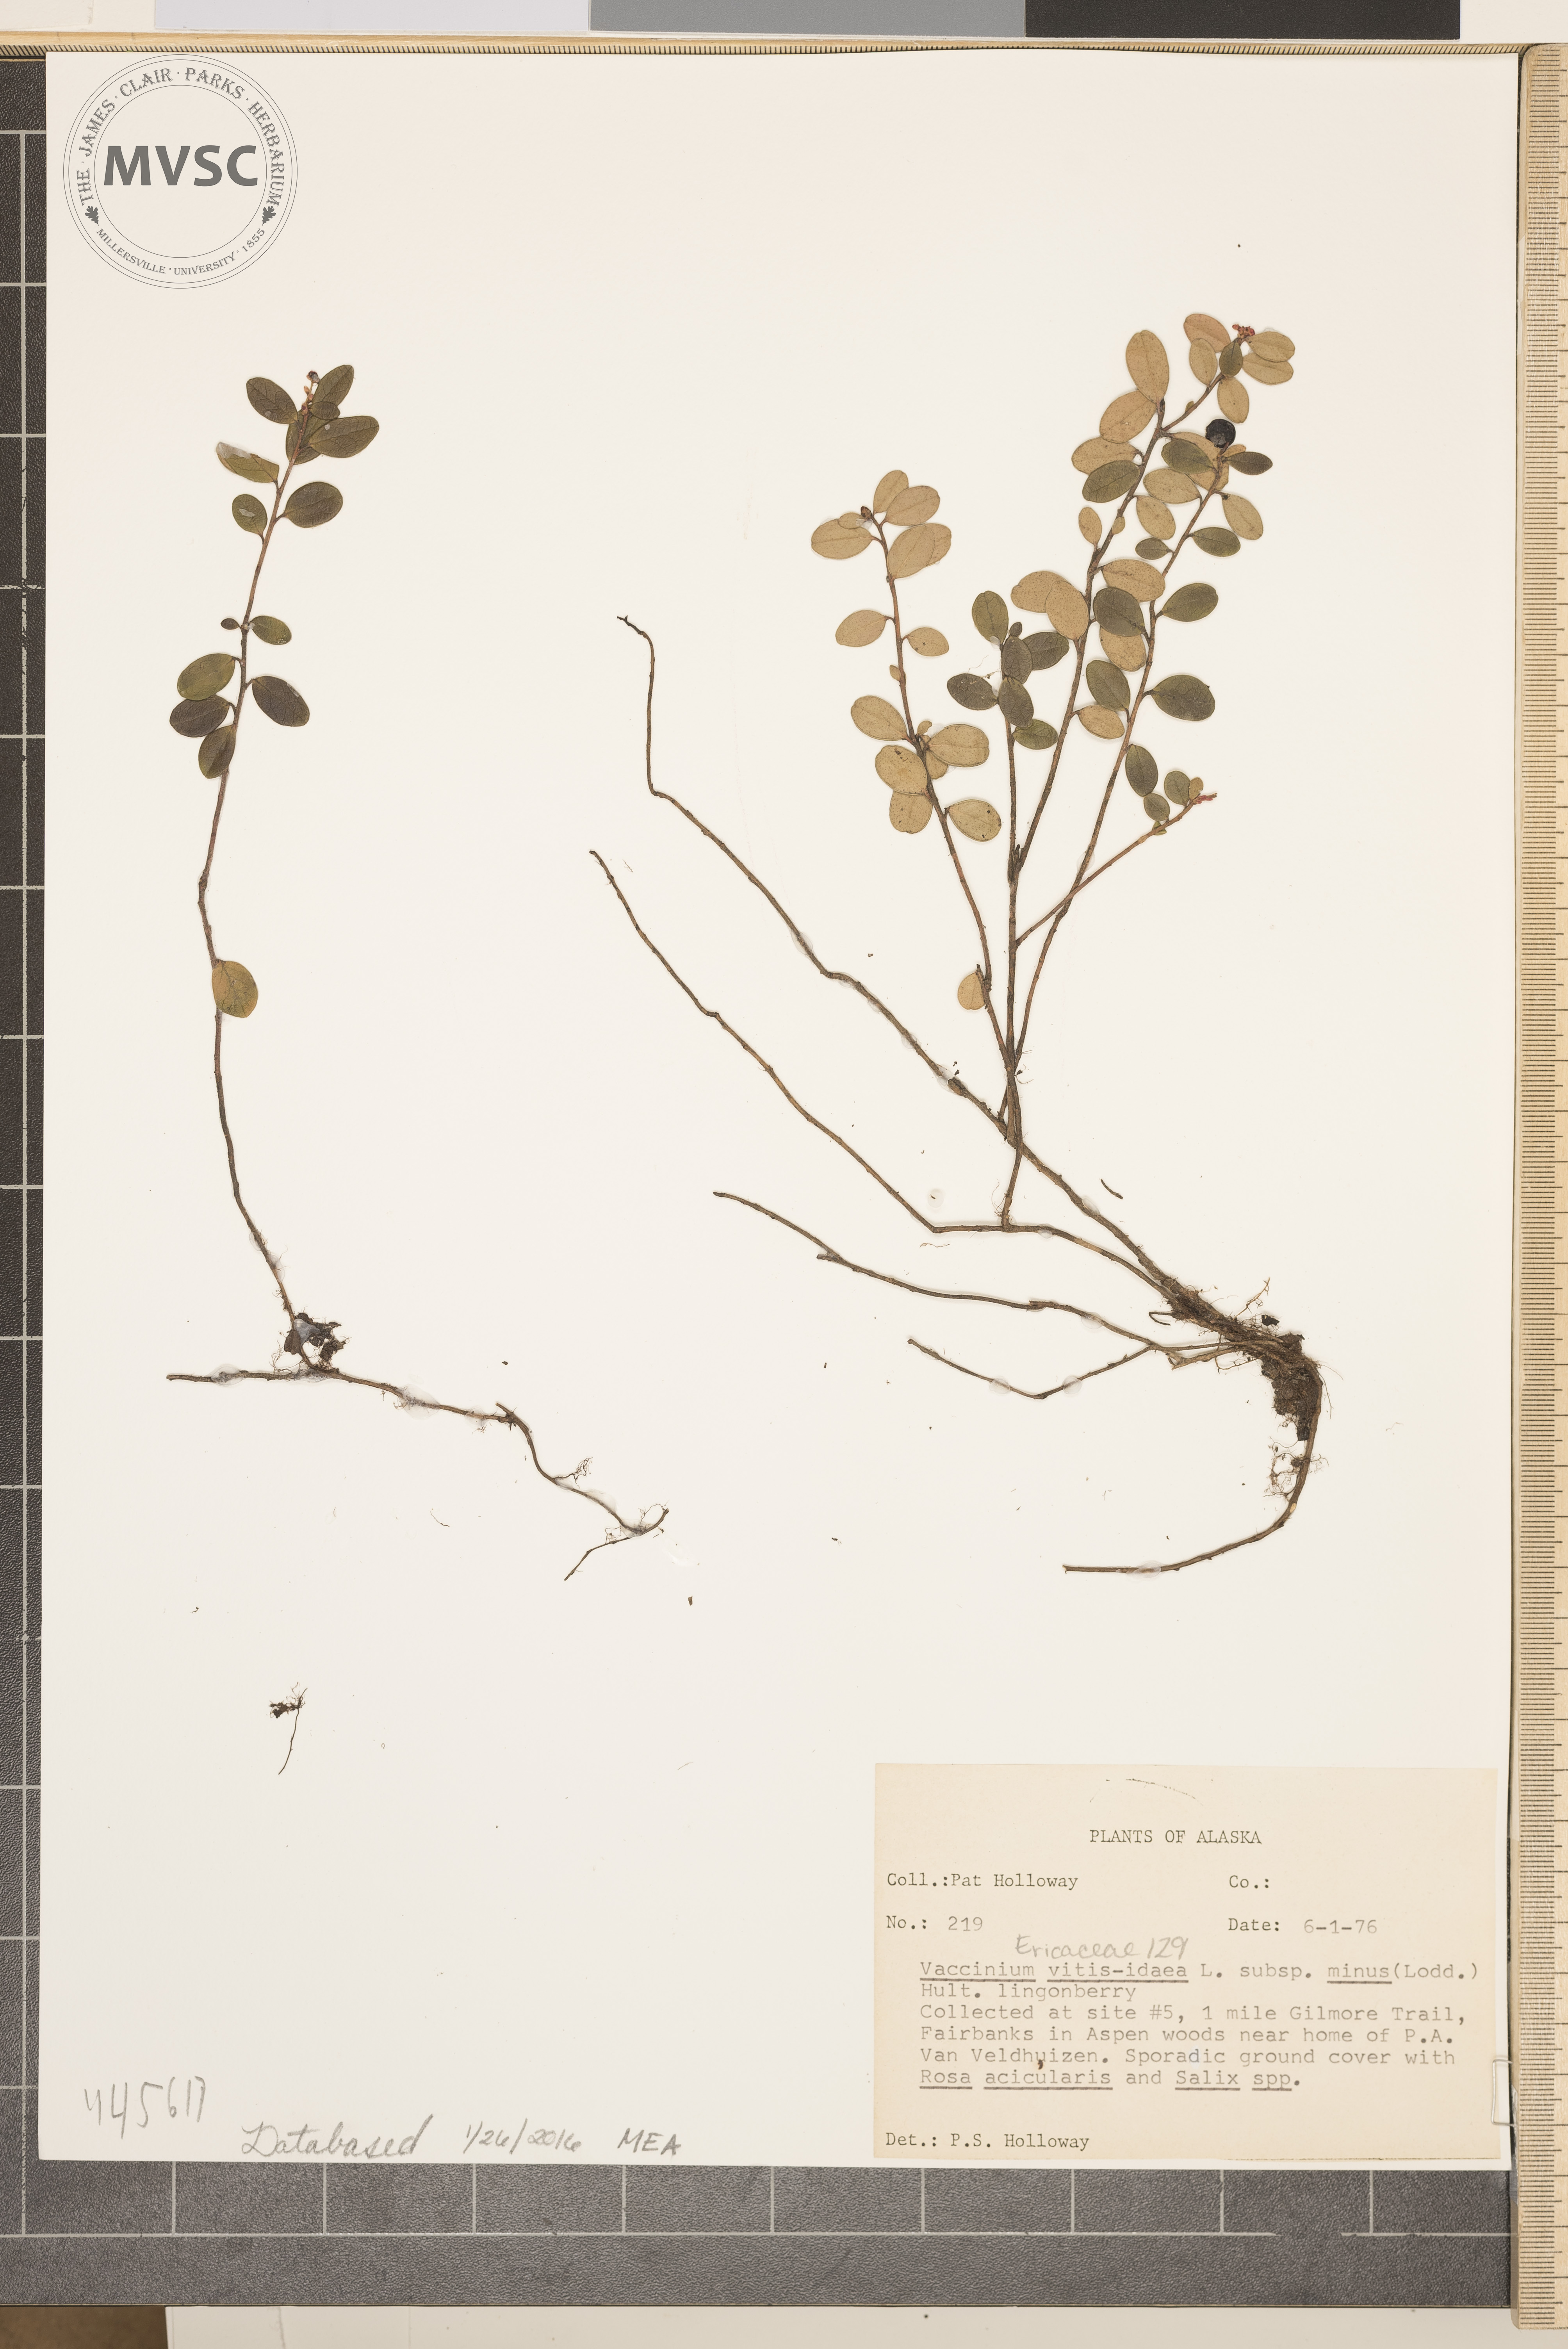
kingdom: Plantae
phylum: Tracheophyta
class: Magnoliopsida
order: Ericales
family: Ericaceae
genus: Vaccinium
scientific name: Vaccinium vitis-idaea
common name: Cowberry
